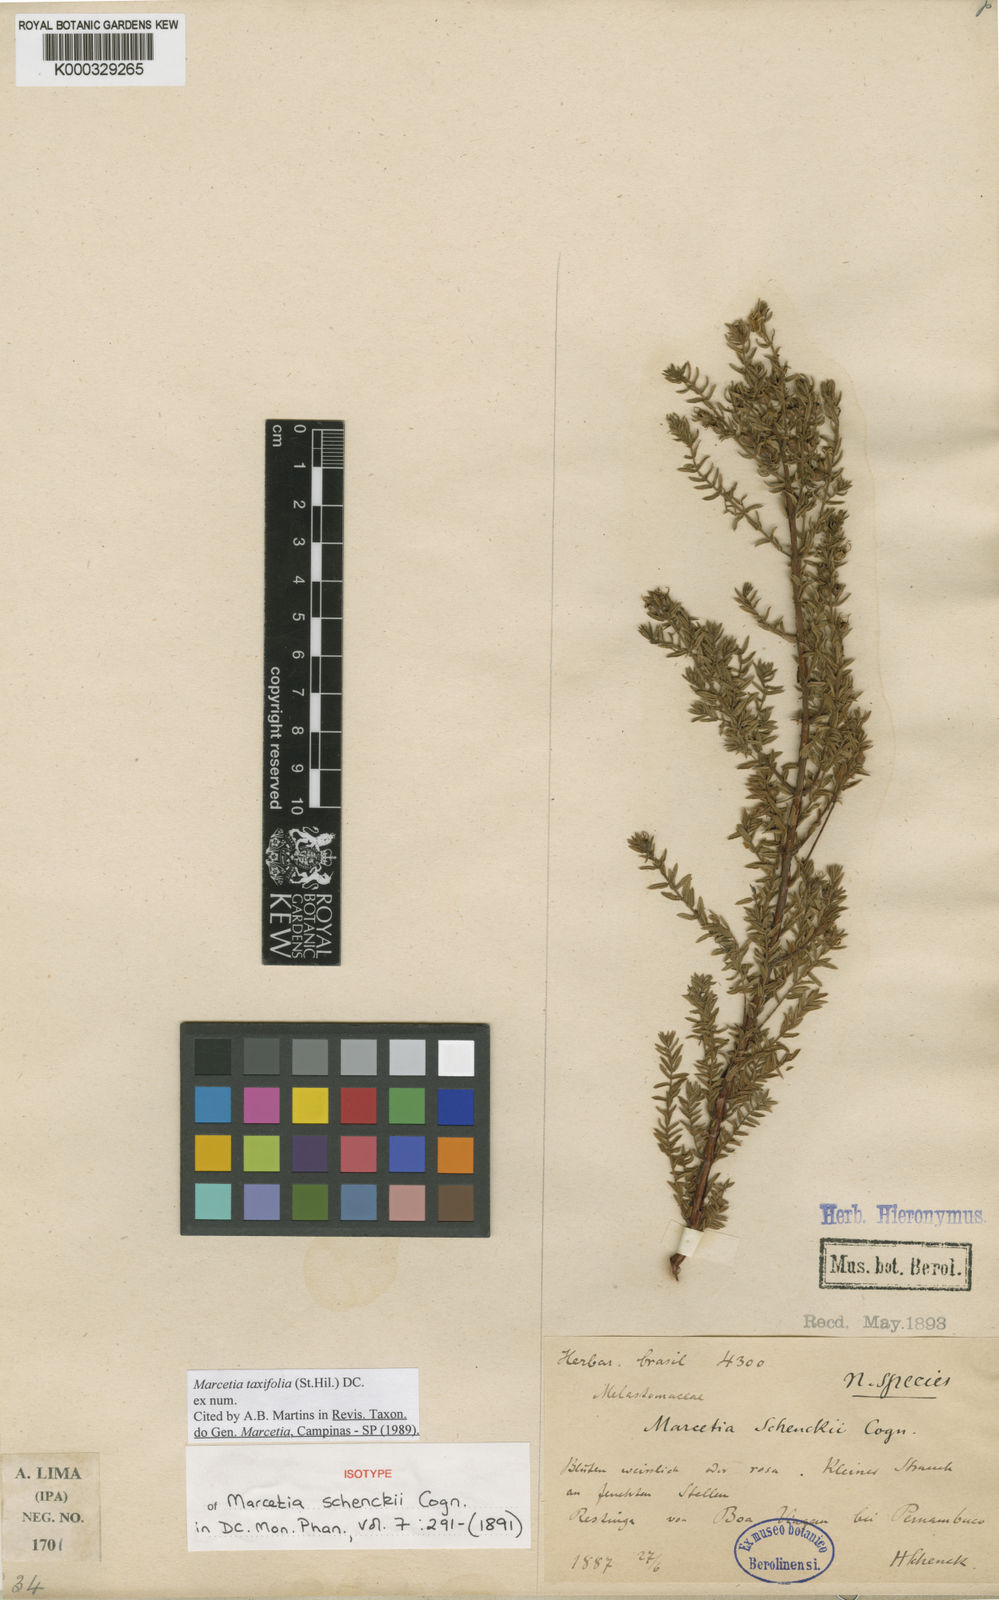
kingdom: Plantae
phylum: Tracheophyta
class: Magnoliopsida
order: Myrtales
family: Melastomataceae
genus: Marcetia
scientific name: Marcetia taxifolia
